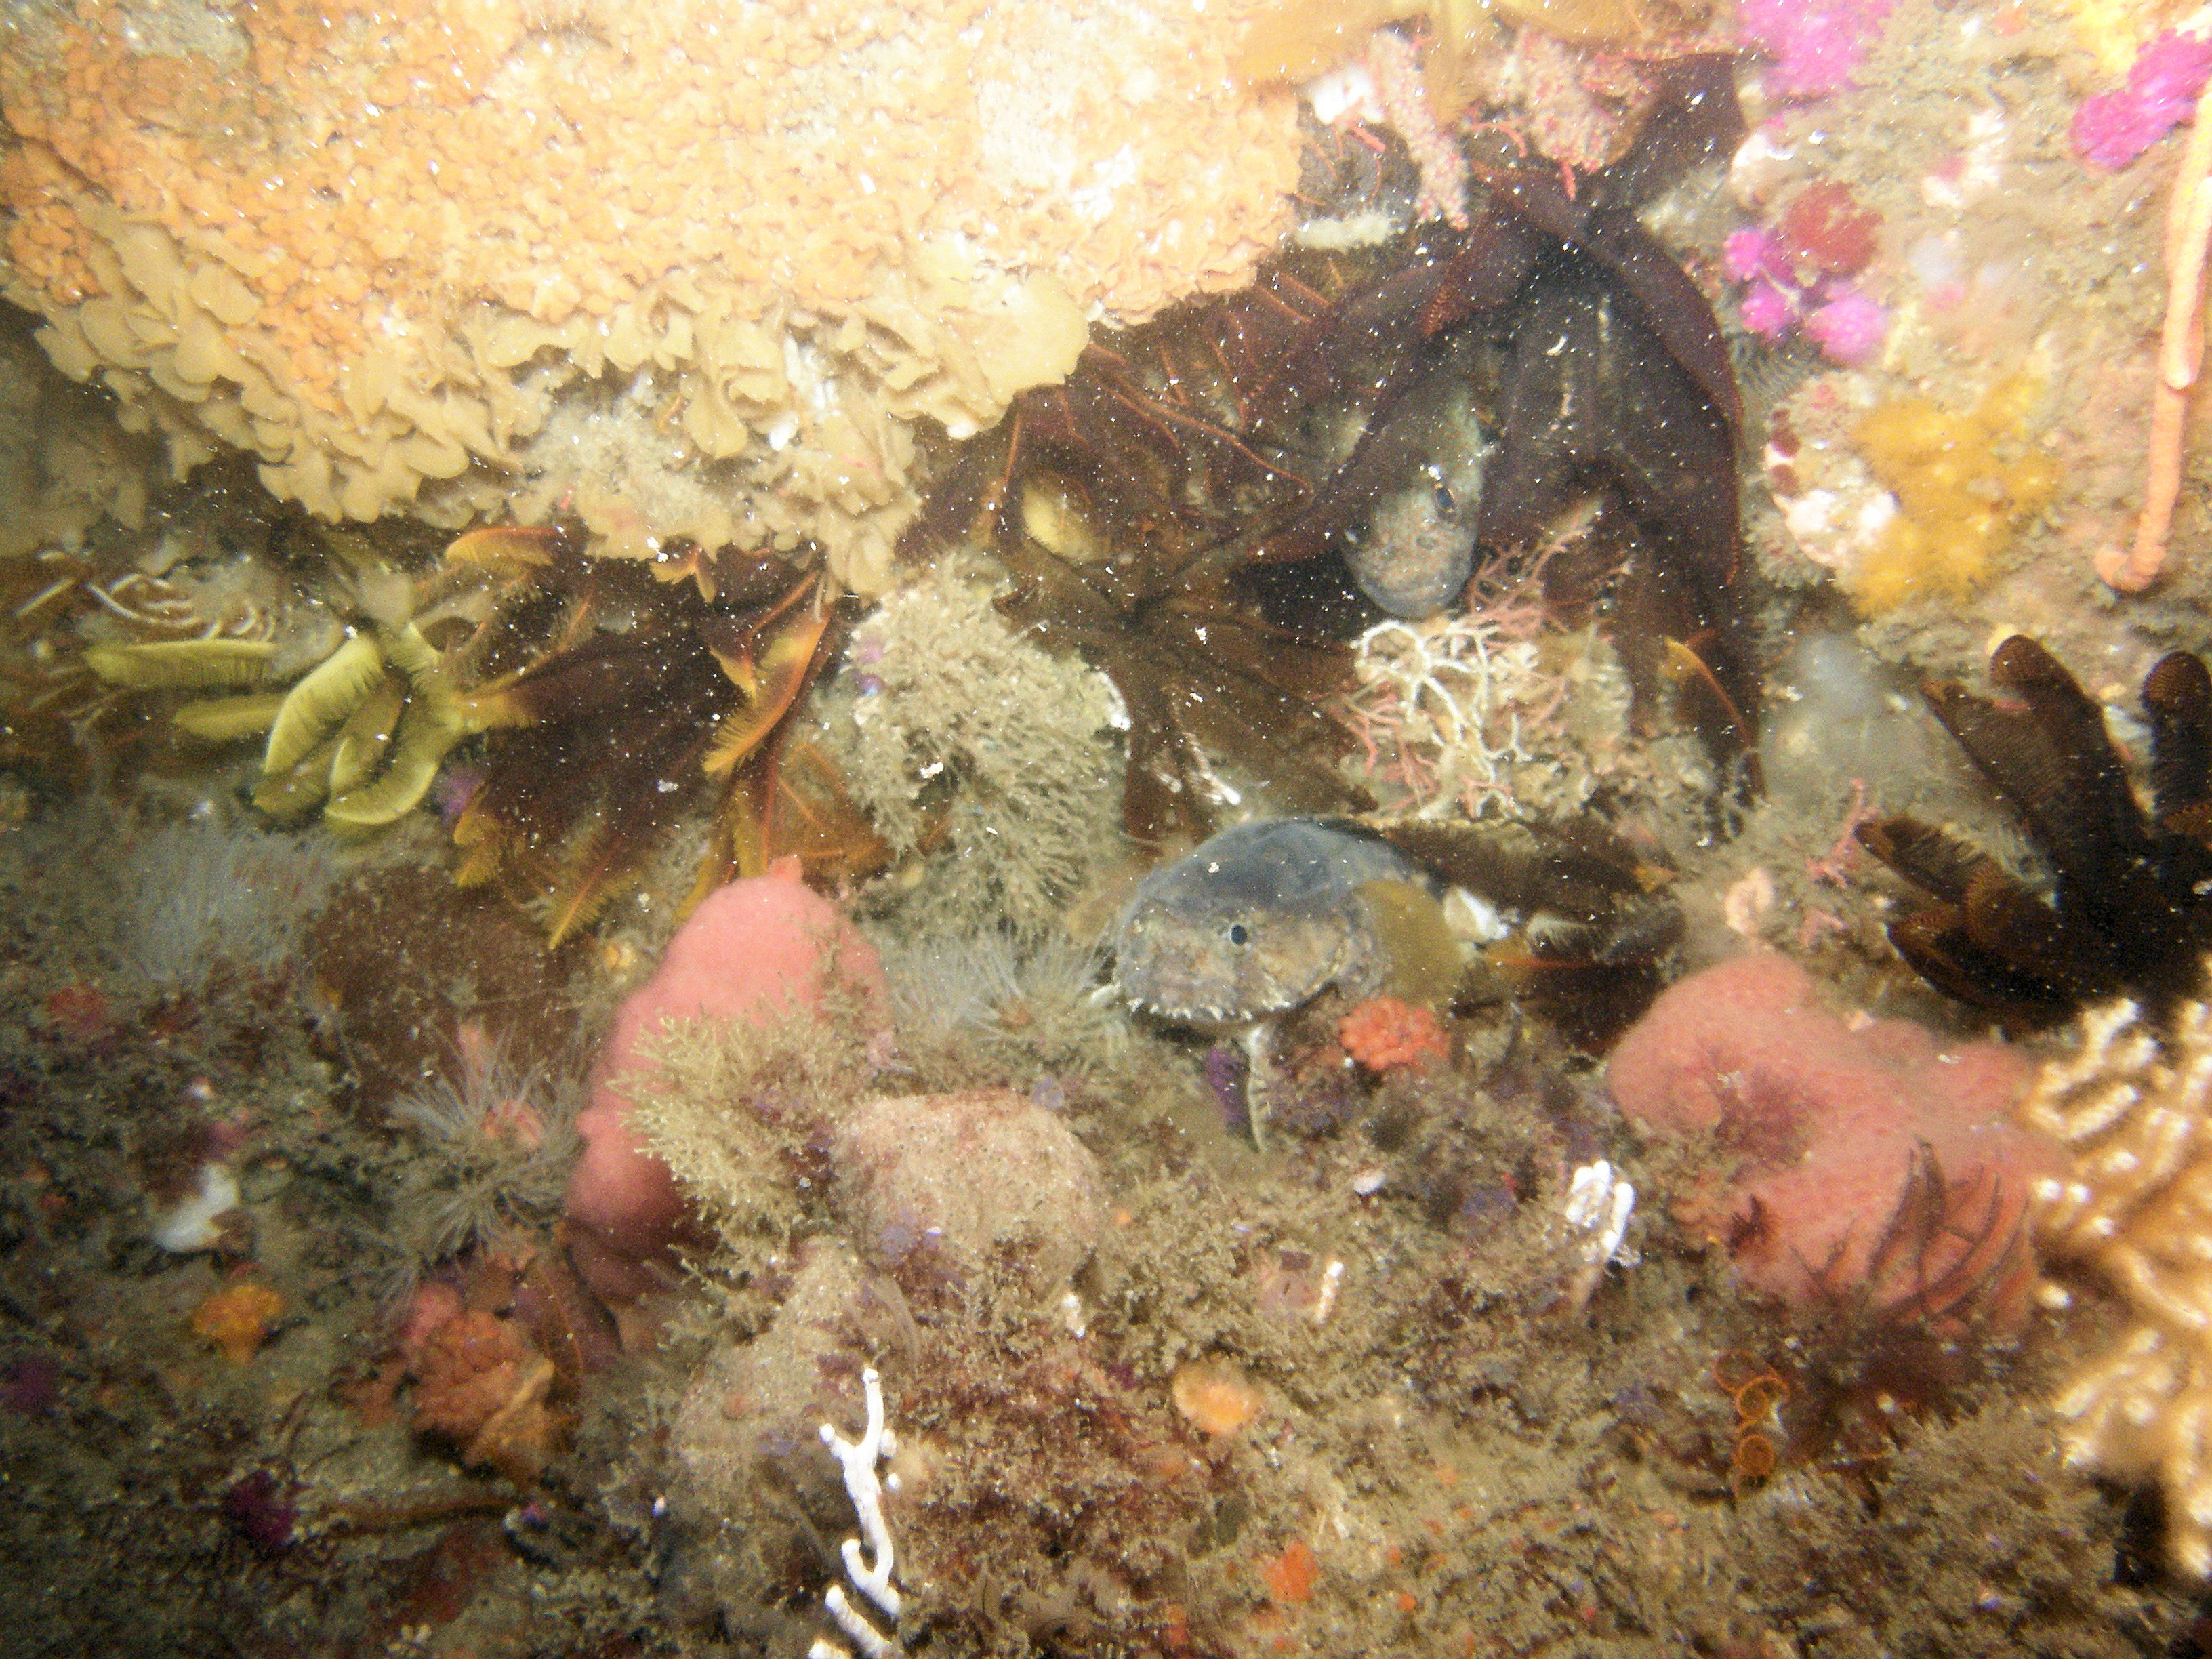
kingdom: Animalia
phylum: Chordata
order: Batrachoidiformes
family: Batrachoididae
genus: Austrobatrachus
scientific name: Austrobatrachus foedus
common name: Puzzled toadfish
